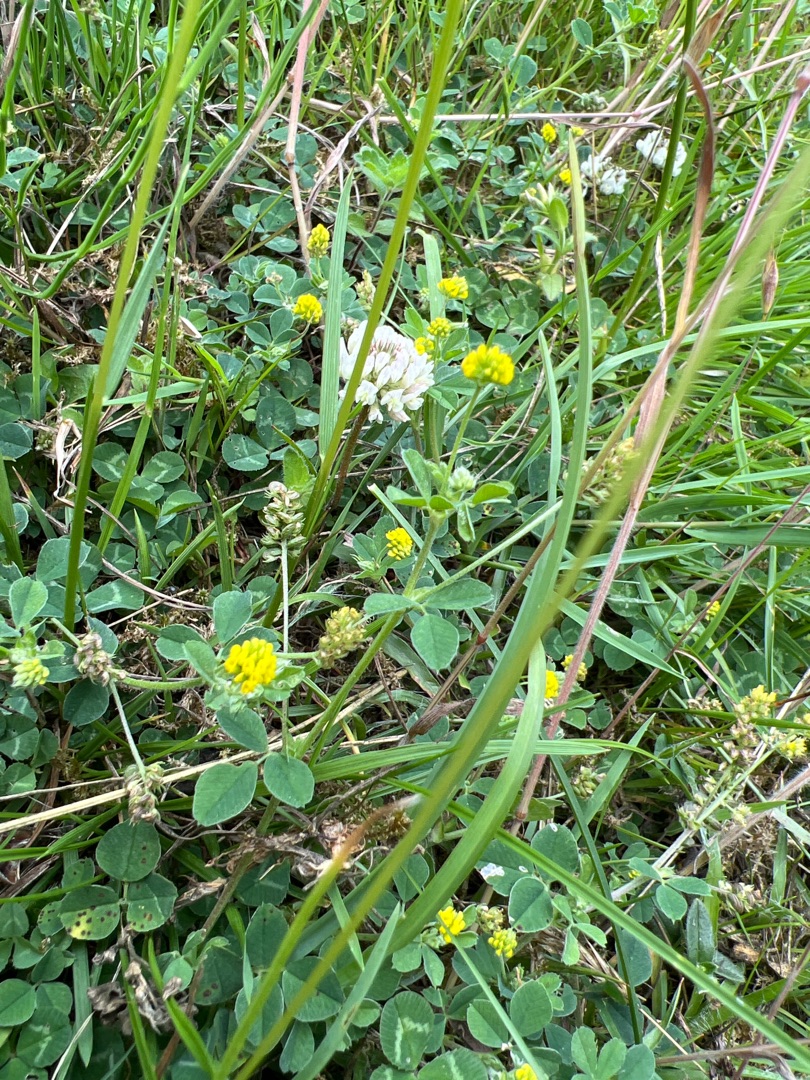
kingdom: Plantae
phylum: Tracheophyta
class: Magnoliopsida
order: Fabales
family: Fabaceae
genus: Medicago
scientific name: Medicago lupulina
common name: Humle-sneglebælg
